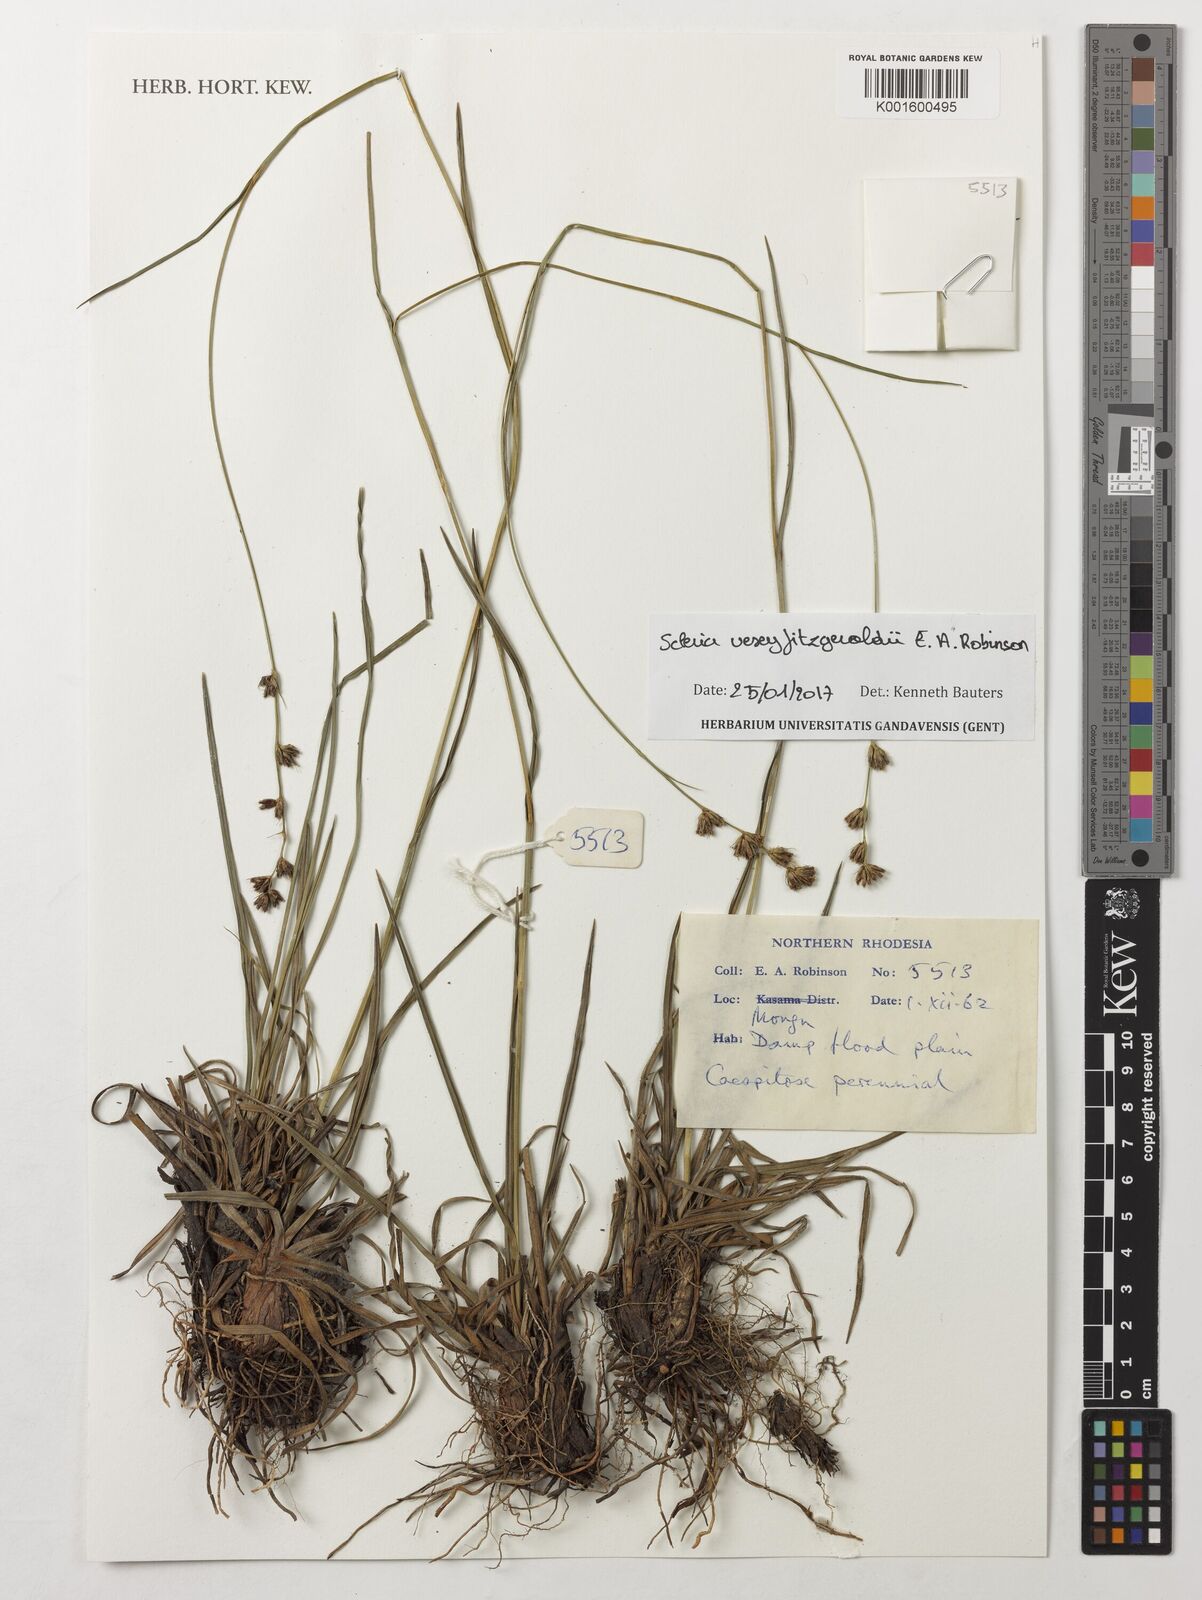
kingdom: Plantae
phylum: Tracheophyta
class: Liliopsida
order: Poales
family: Cyperaceae
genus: Scleria
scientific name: Scleria veseyfitzgeraldii
